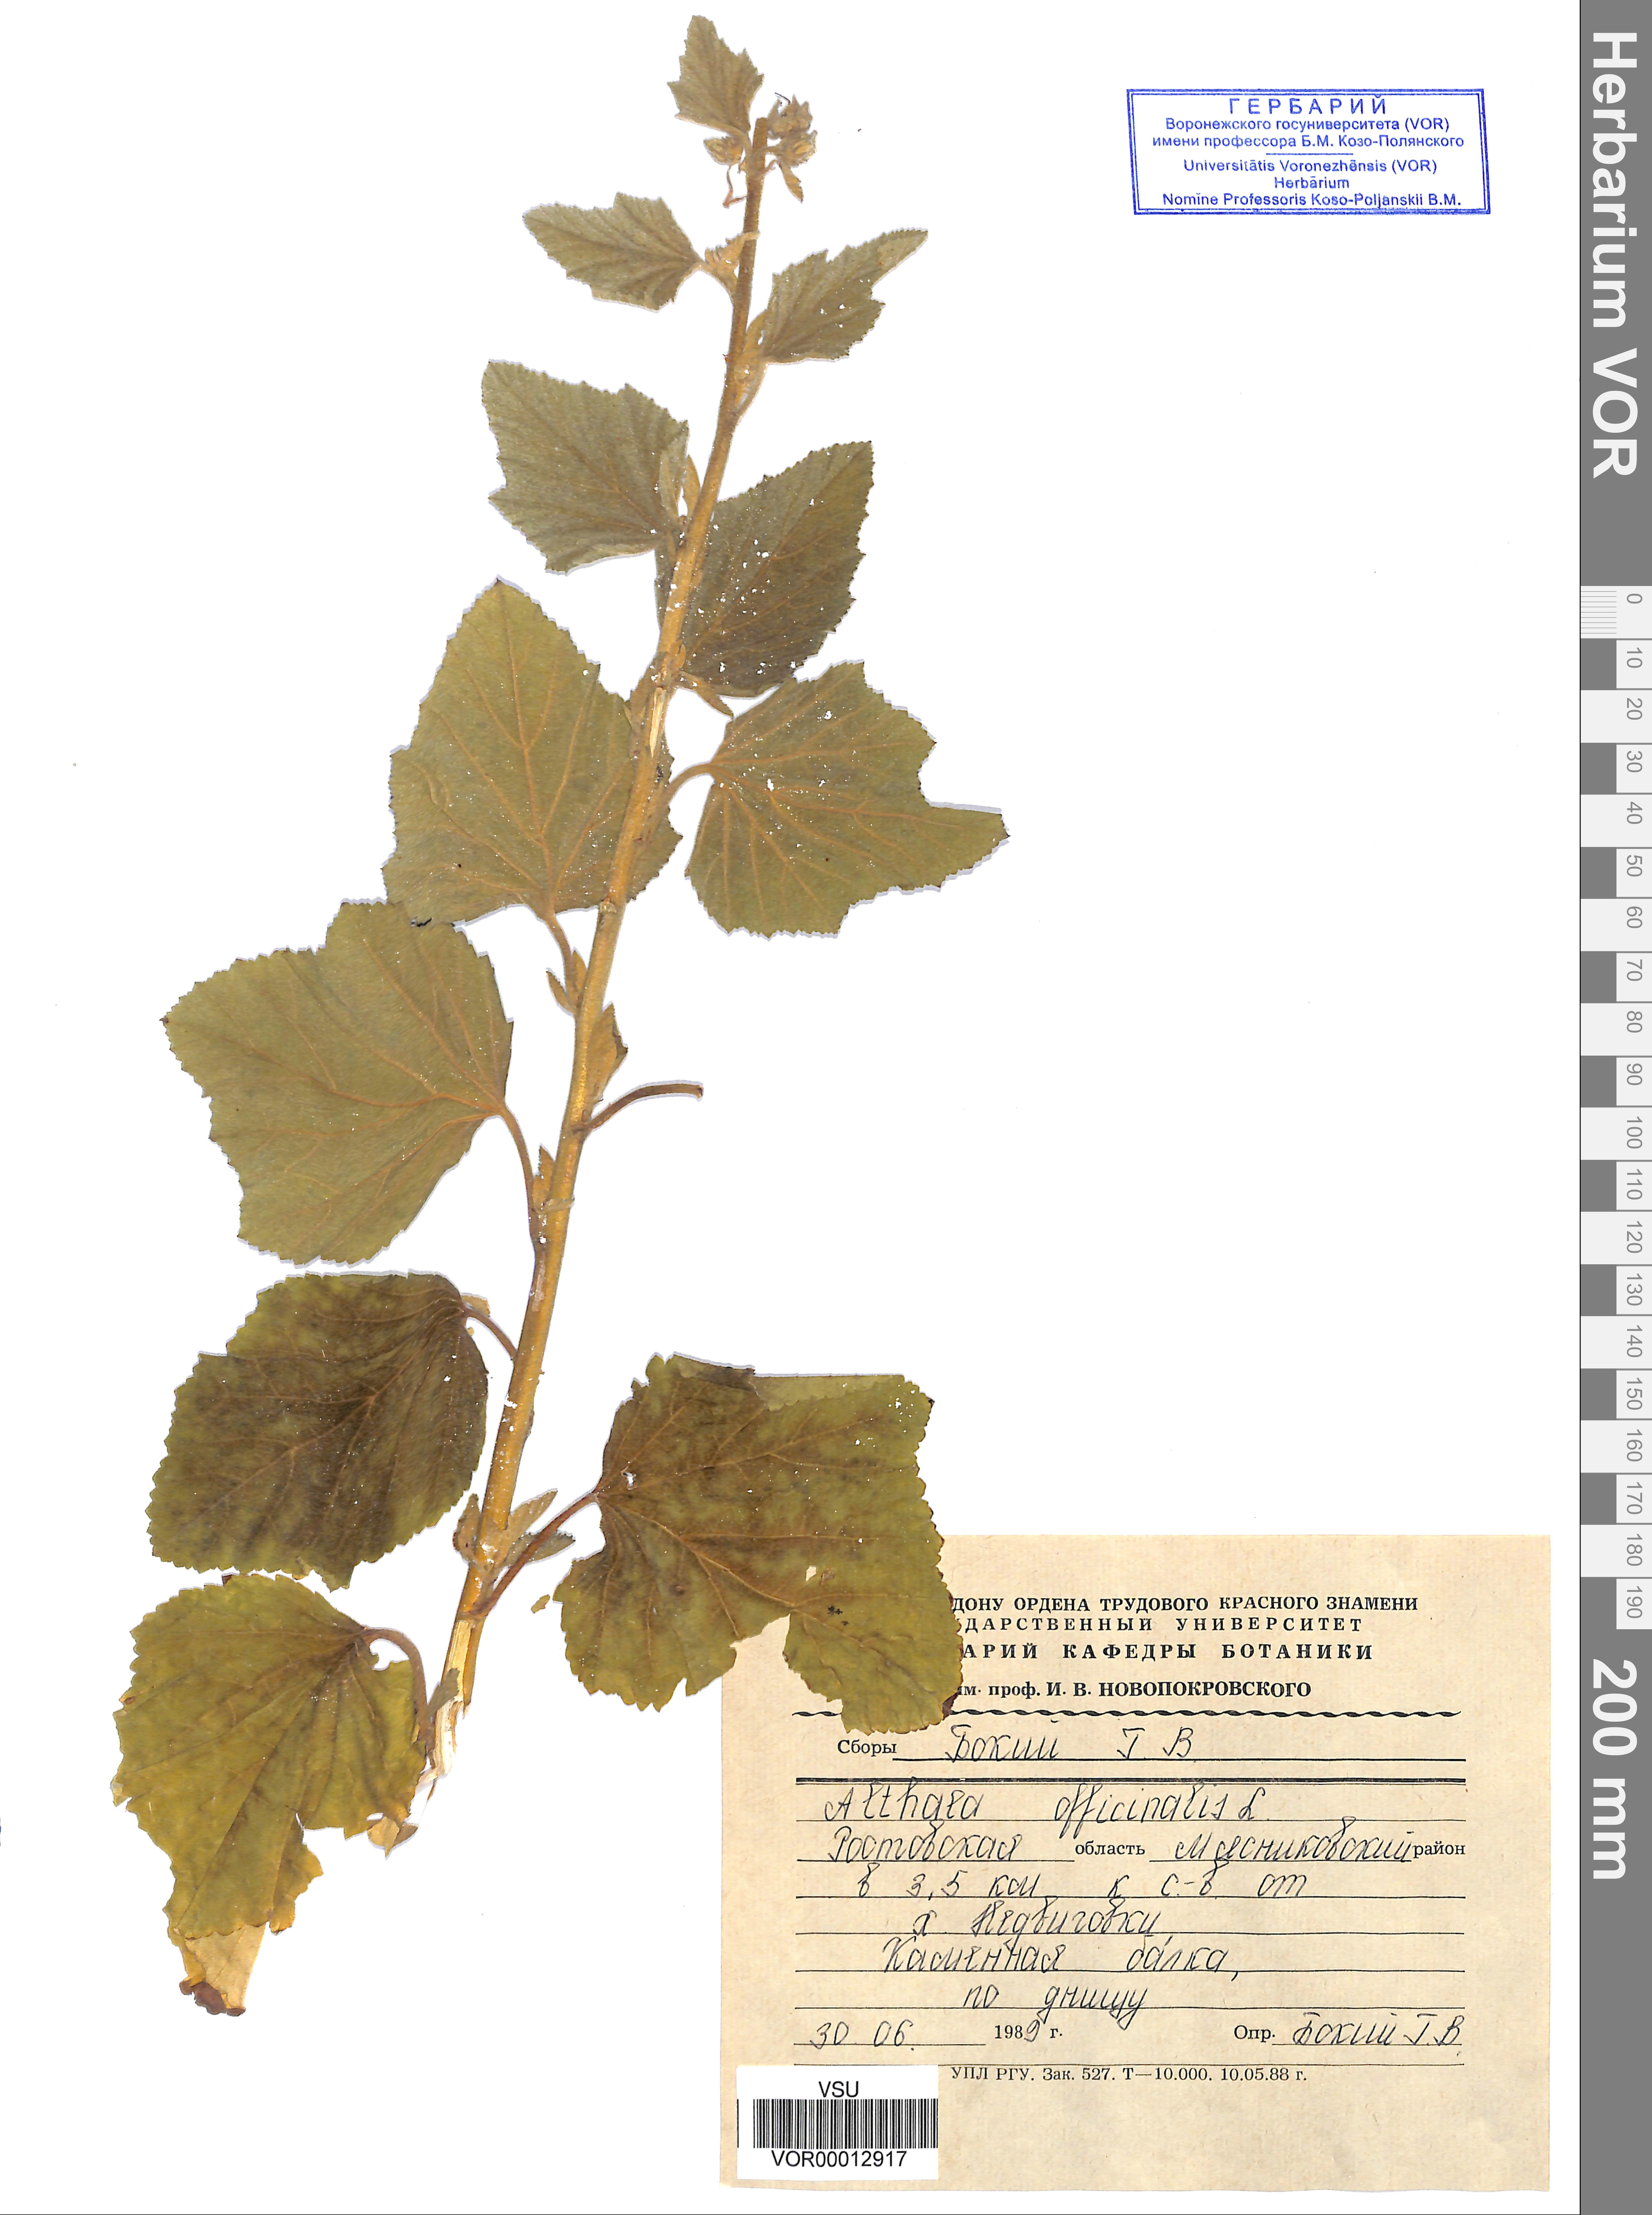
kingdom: Plantae
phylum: Tracheophyta
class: Magnoliopsida
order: Malvales
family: Malvaceae
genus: Althaea
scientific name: Althaea officinalis
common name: Marsh-mallow
